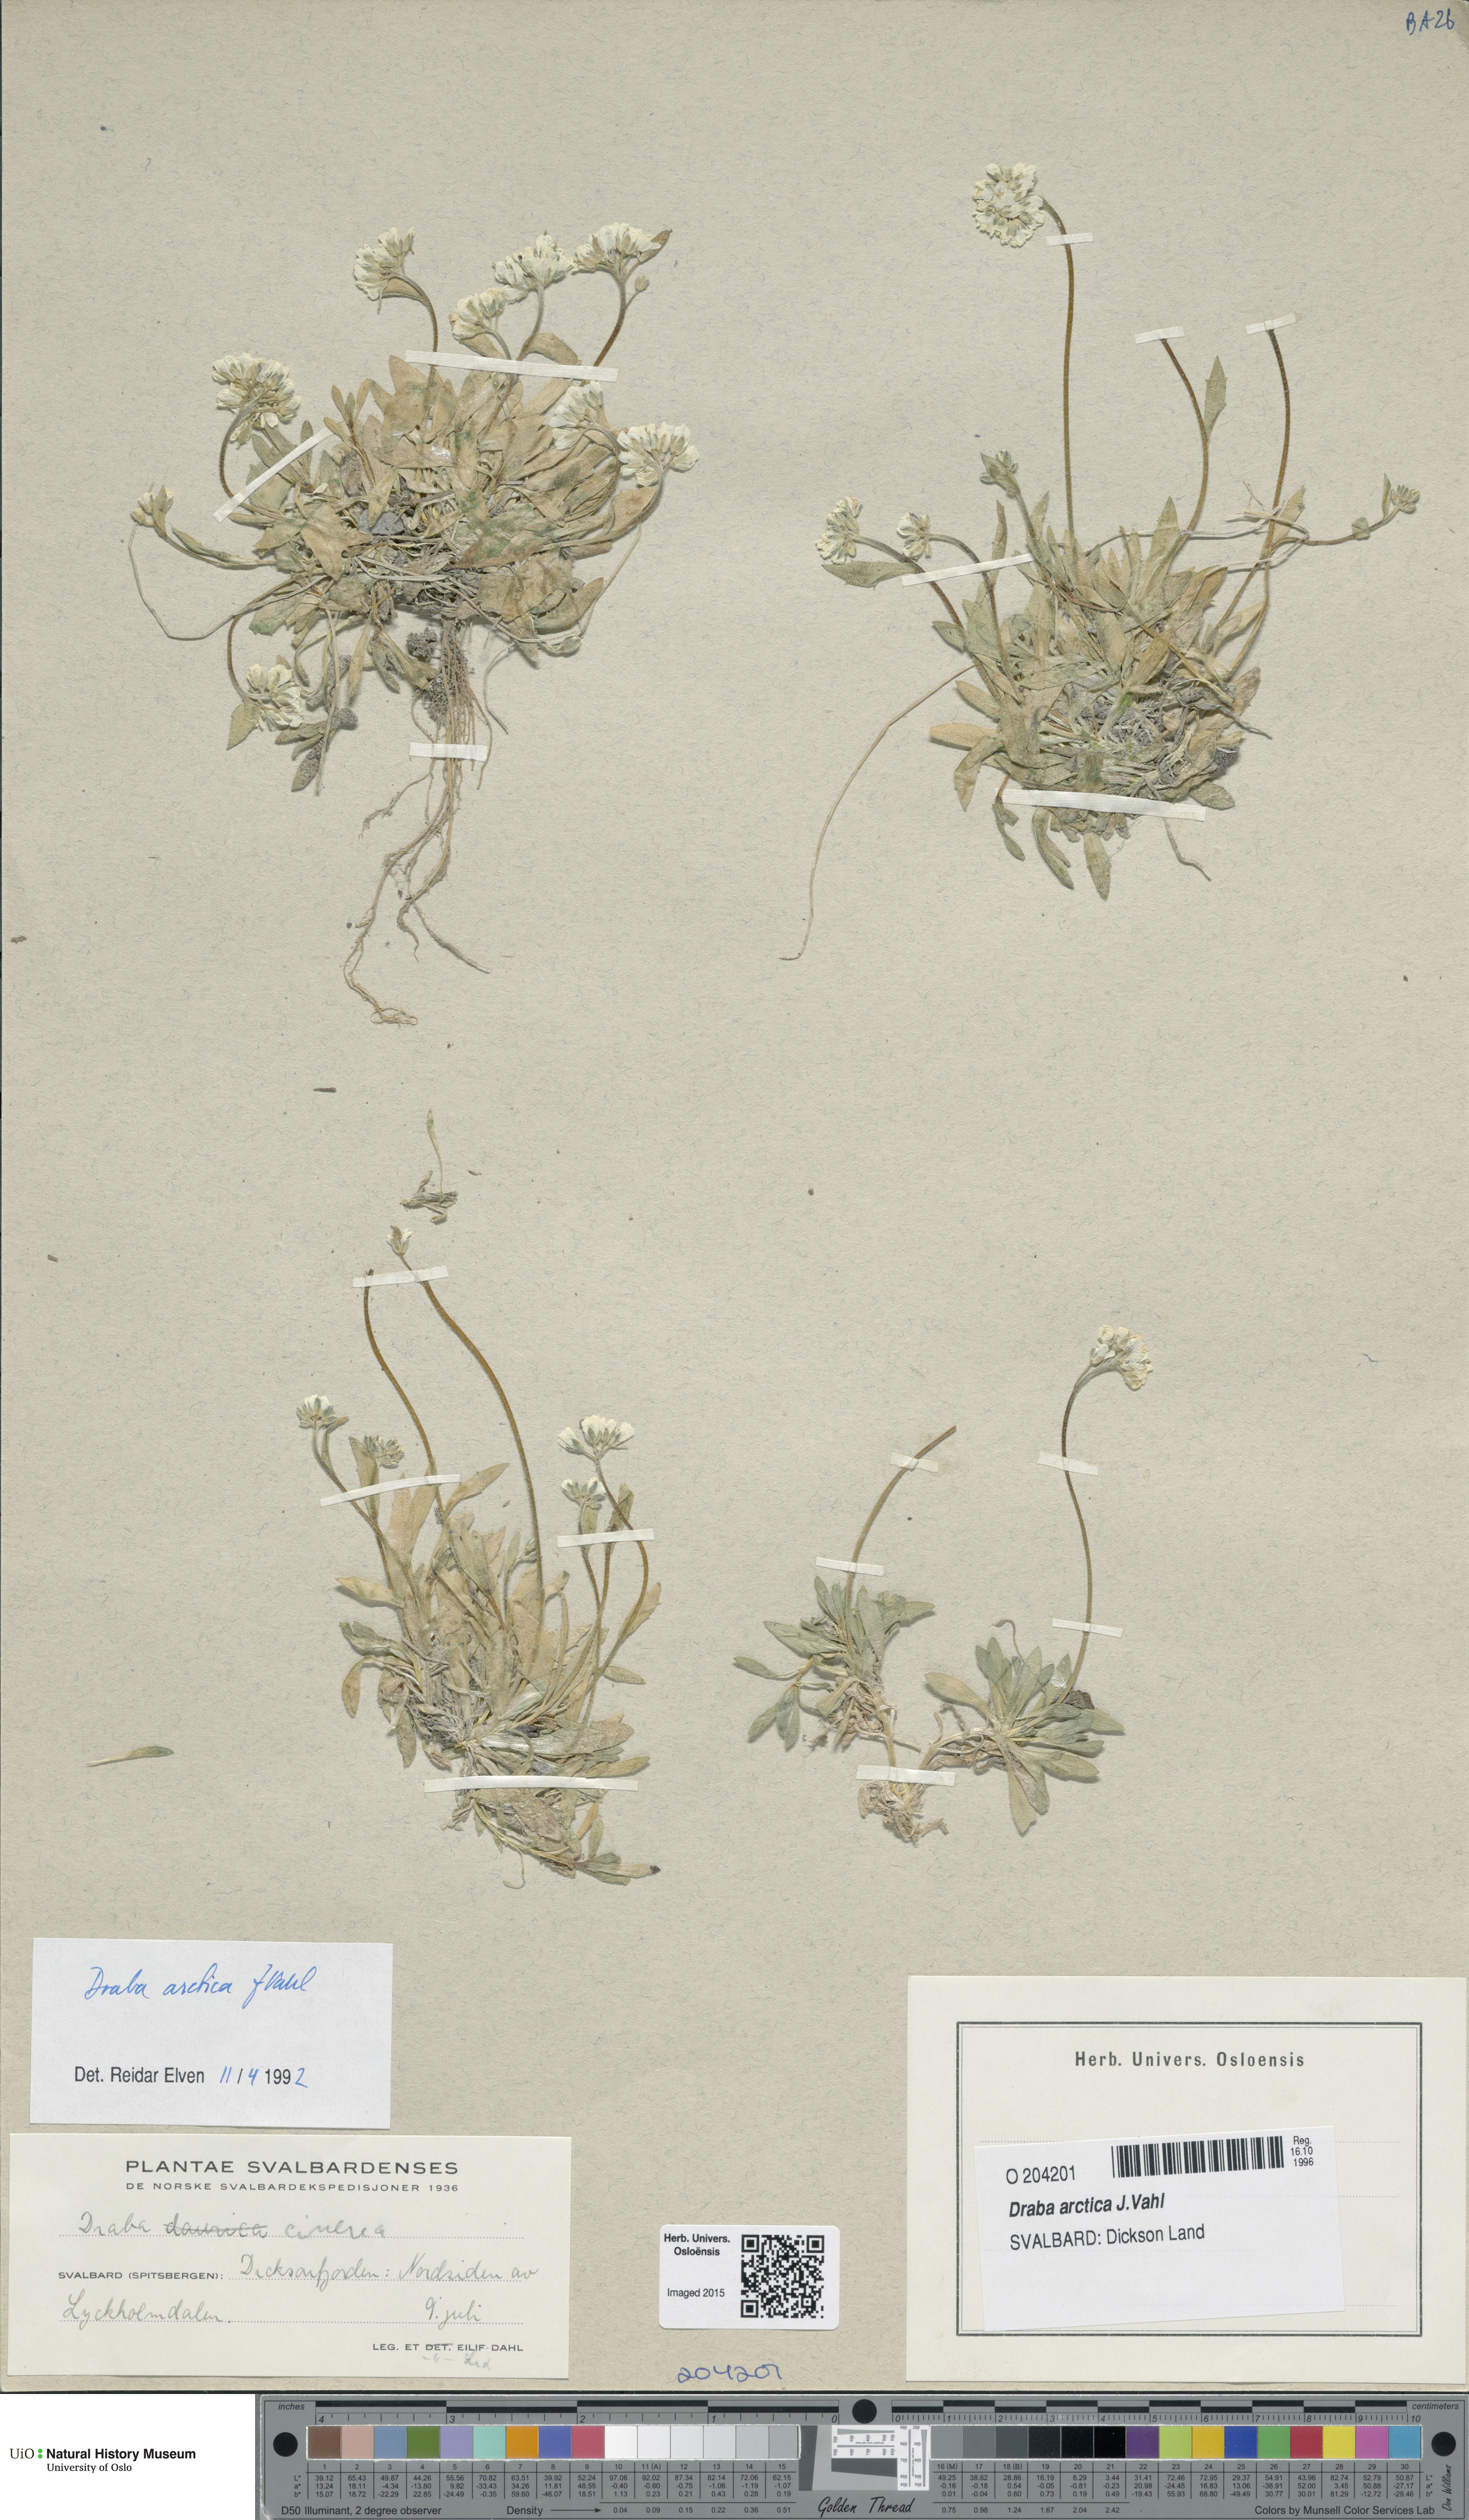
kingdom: Plantae
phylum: Tracheophyta
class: Magnoliopsida
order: Brassicales
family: Brassicaceae
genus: Draba
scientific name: Draba arctica
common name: Arctic draba
